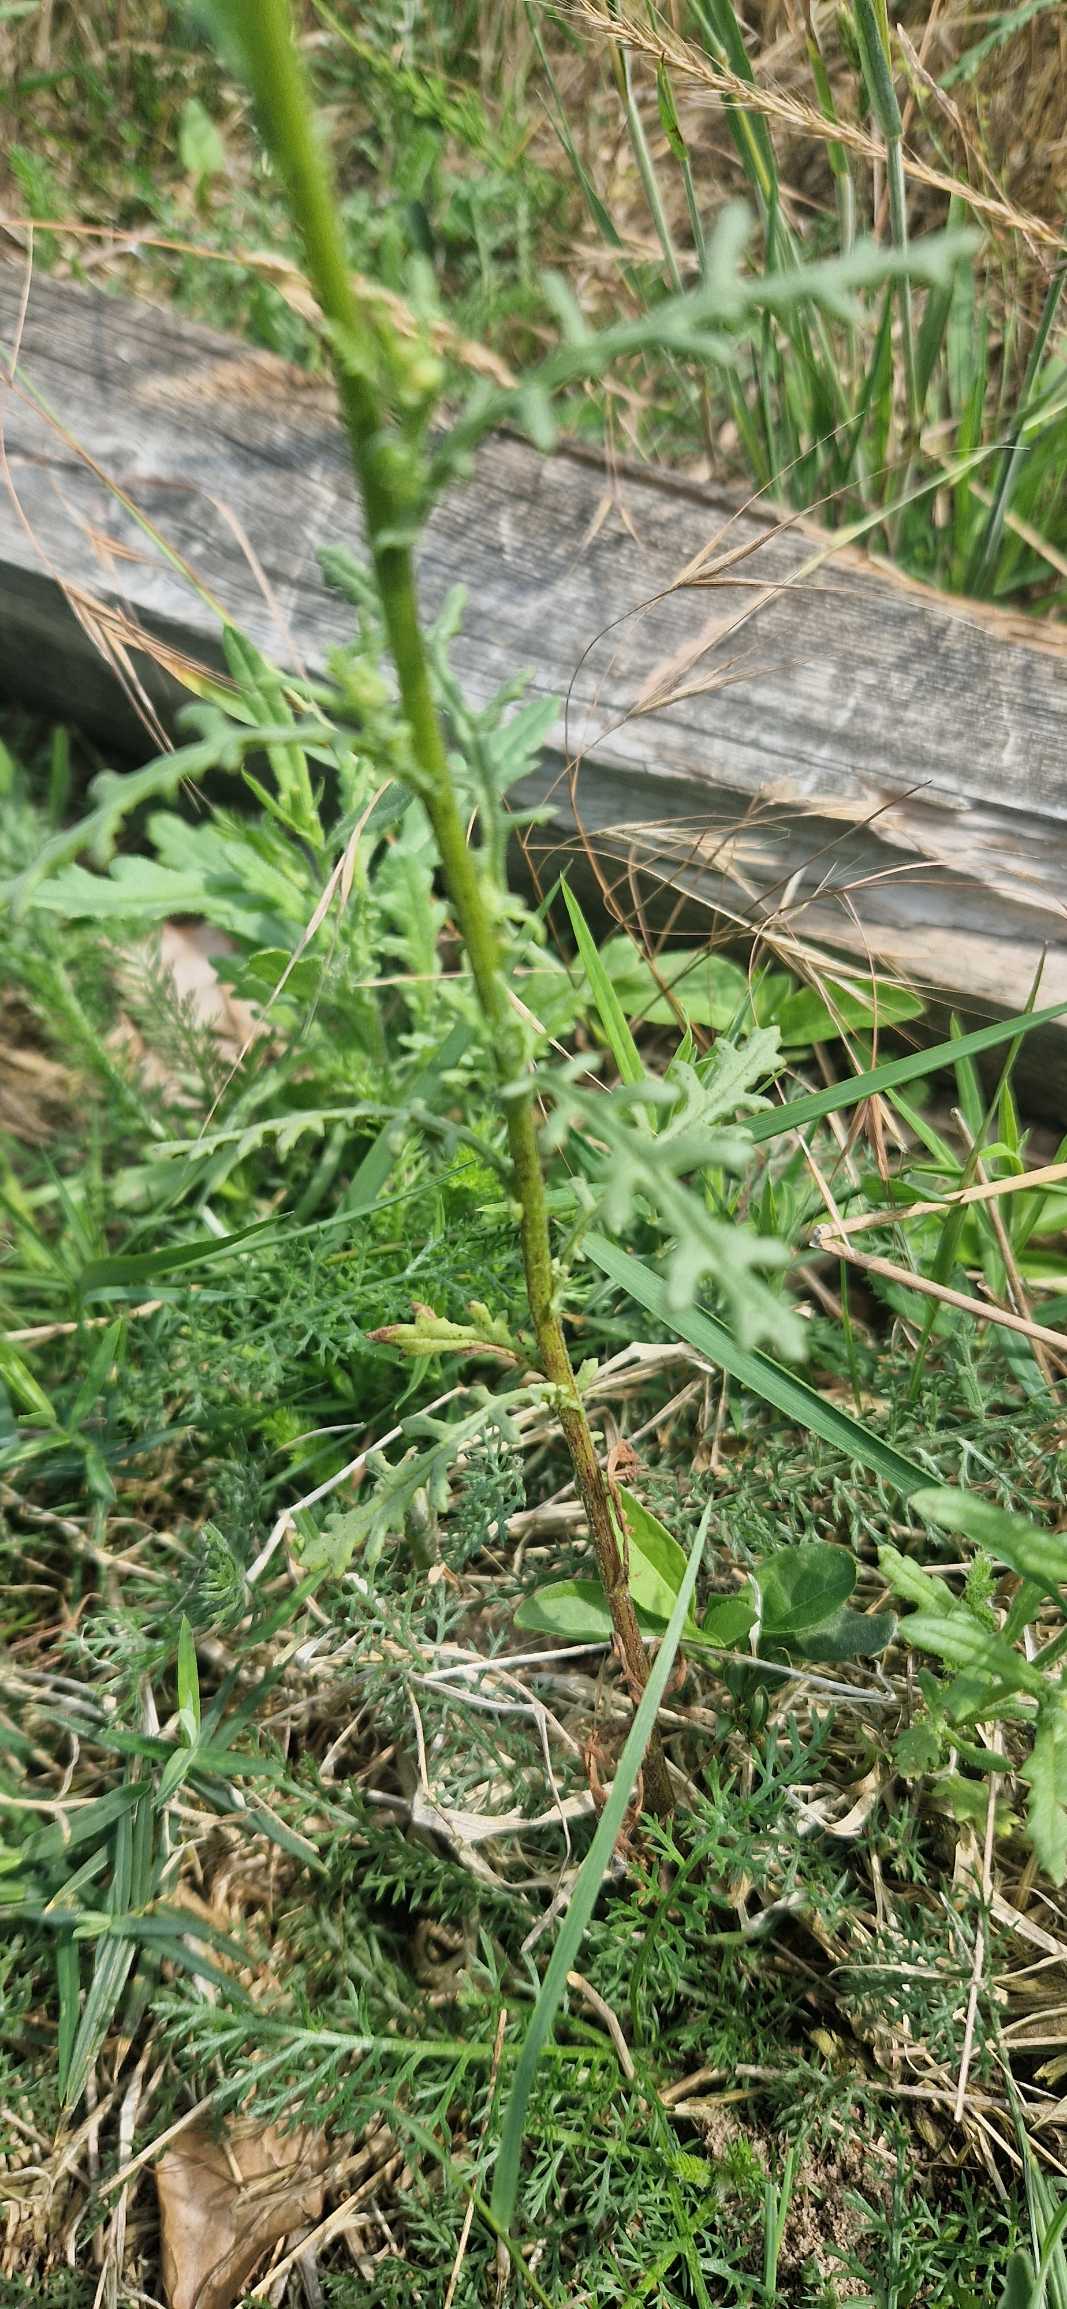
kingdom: Plantae
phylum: Tracheophyta
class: Magnoliopsida
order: Asterales
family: Asteraceae
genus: Senecio
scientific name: Senecio sylvaticus
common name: Skov-brandbæger
